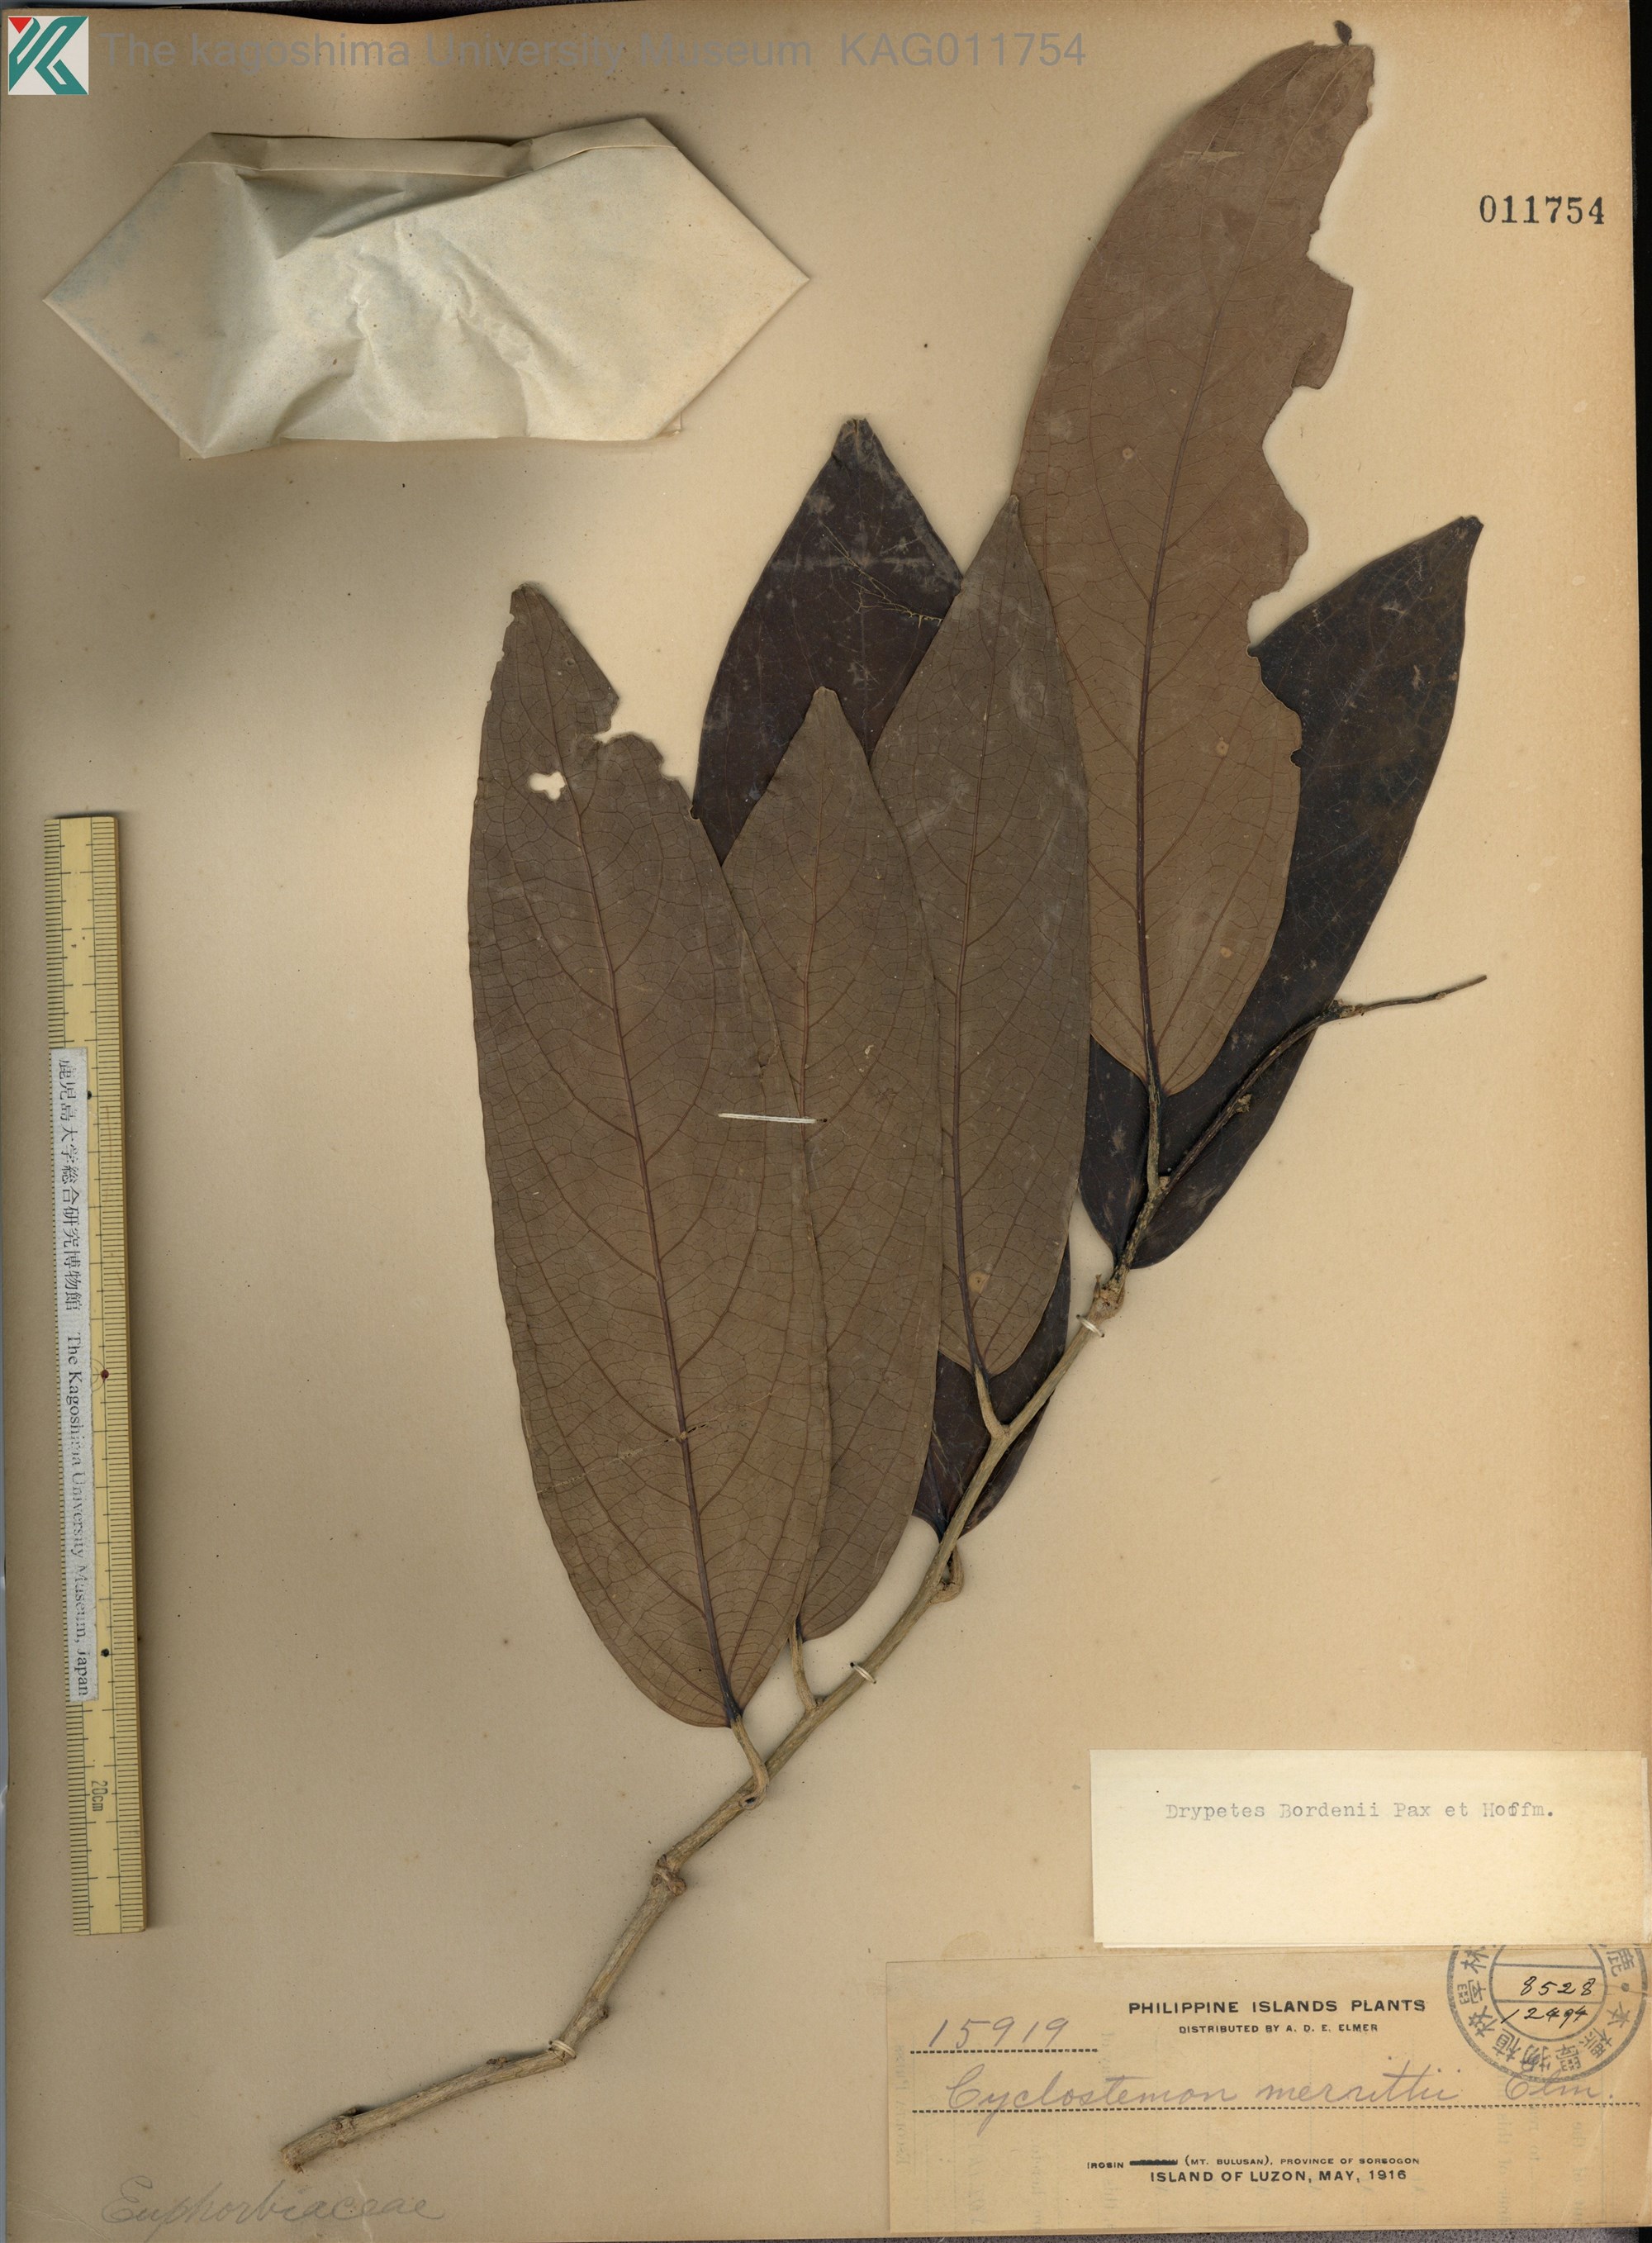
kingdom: Plantae
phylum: Tracheophyta
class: Magnoliopsida
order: Malpighiales
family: Putranjivaceae
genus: Drypetes
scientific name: Drypetes longifolia
